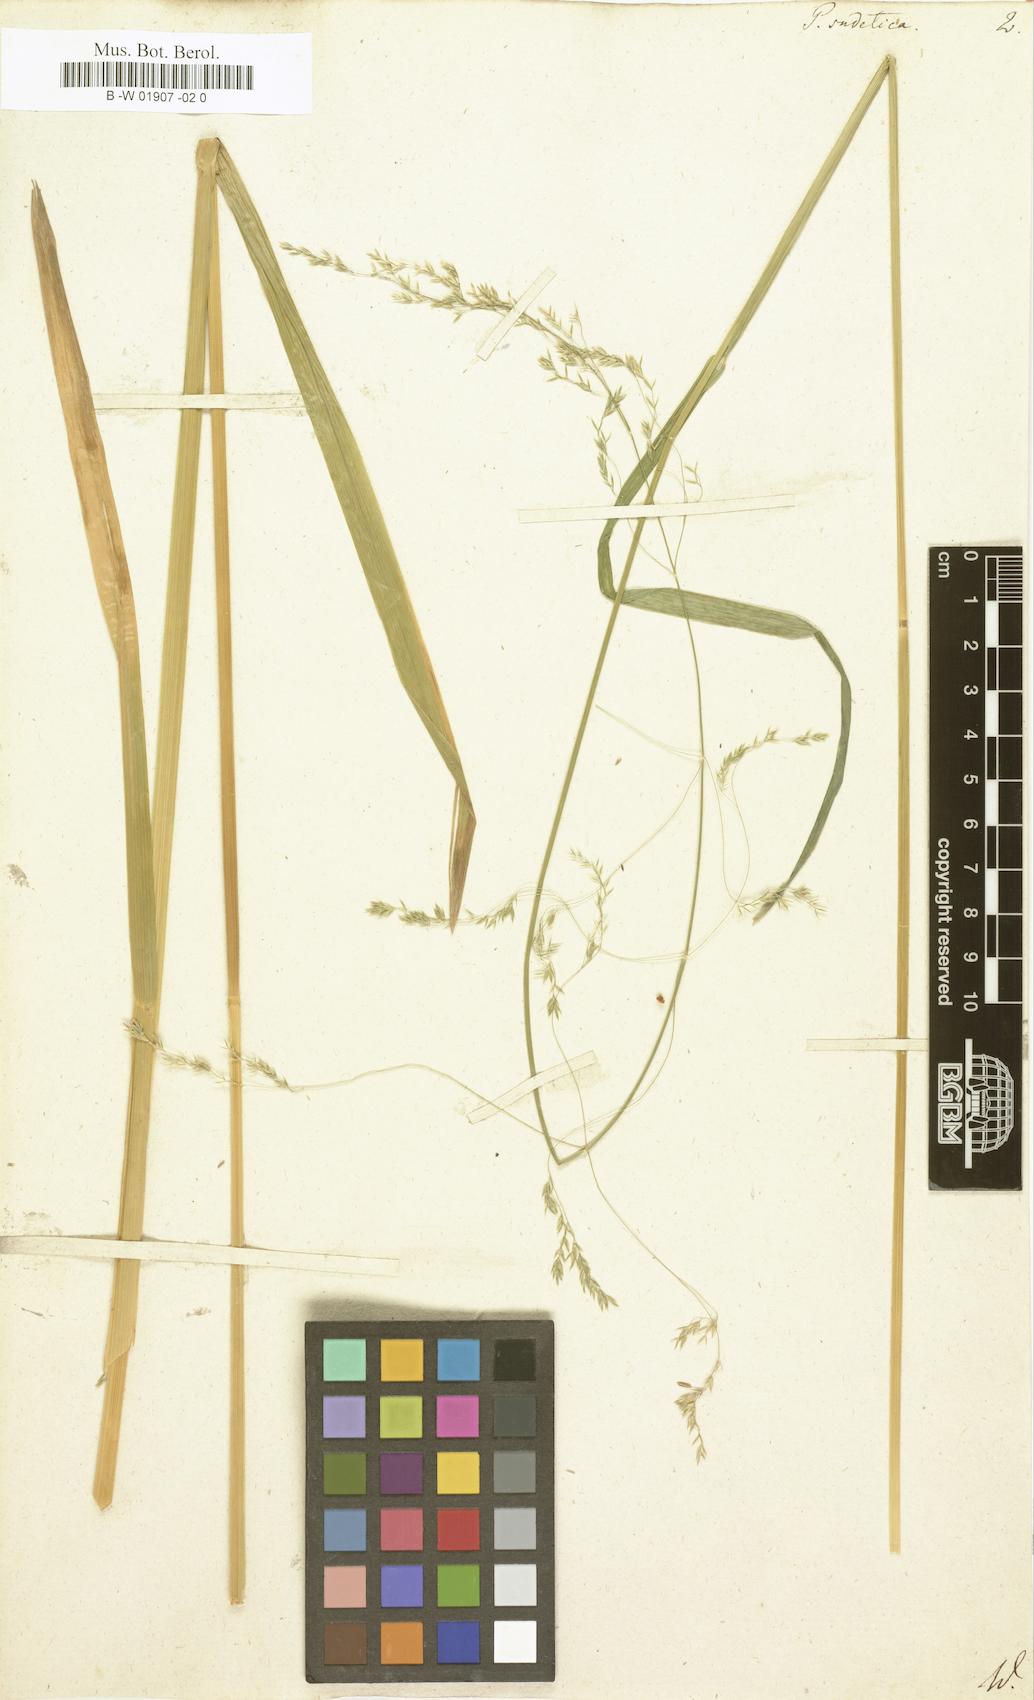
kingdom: Plantae
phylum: Tracheophyta
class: Liliopsida
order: Poales
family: Poaceae
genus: Poa
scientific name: Poa sudetica
